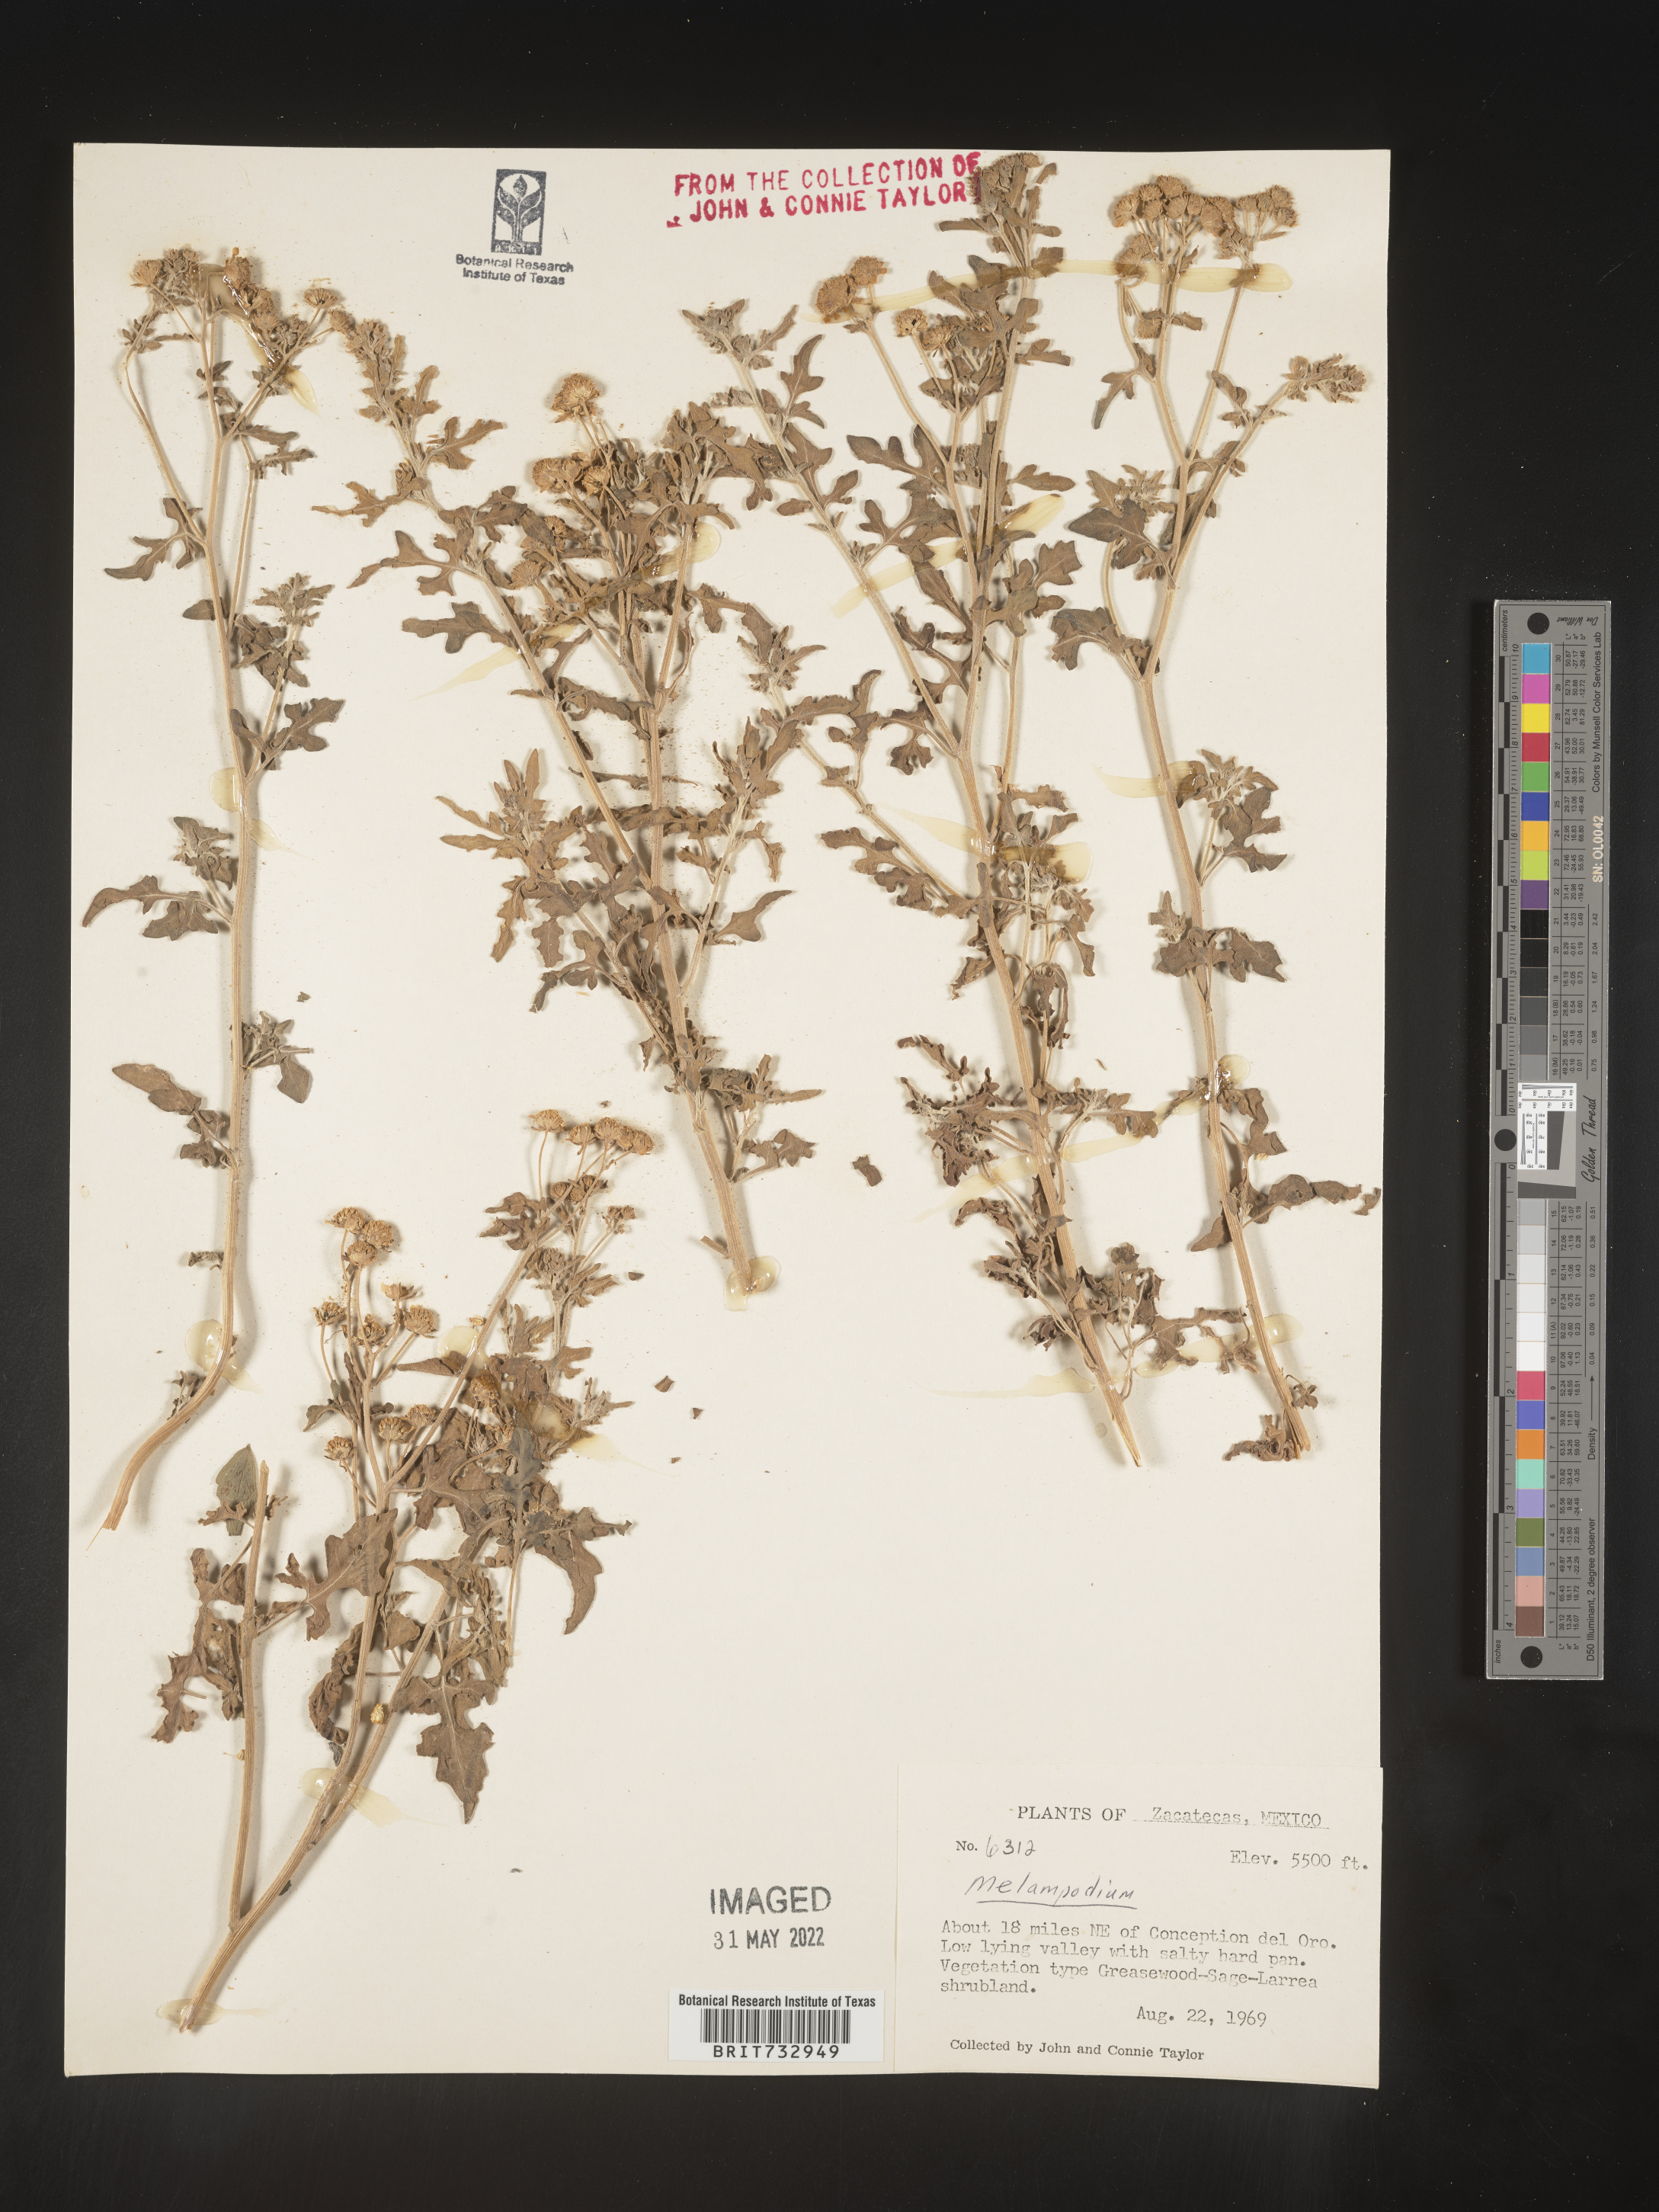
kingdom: Plantae
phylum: Tracheophyta
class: Magnoliopsida
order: Asterales
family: Asteraceae
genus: Melampodium
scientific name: Melampodium
